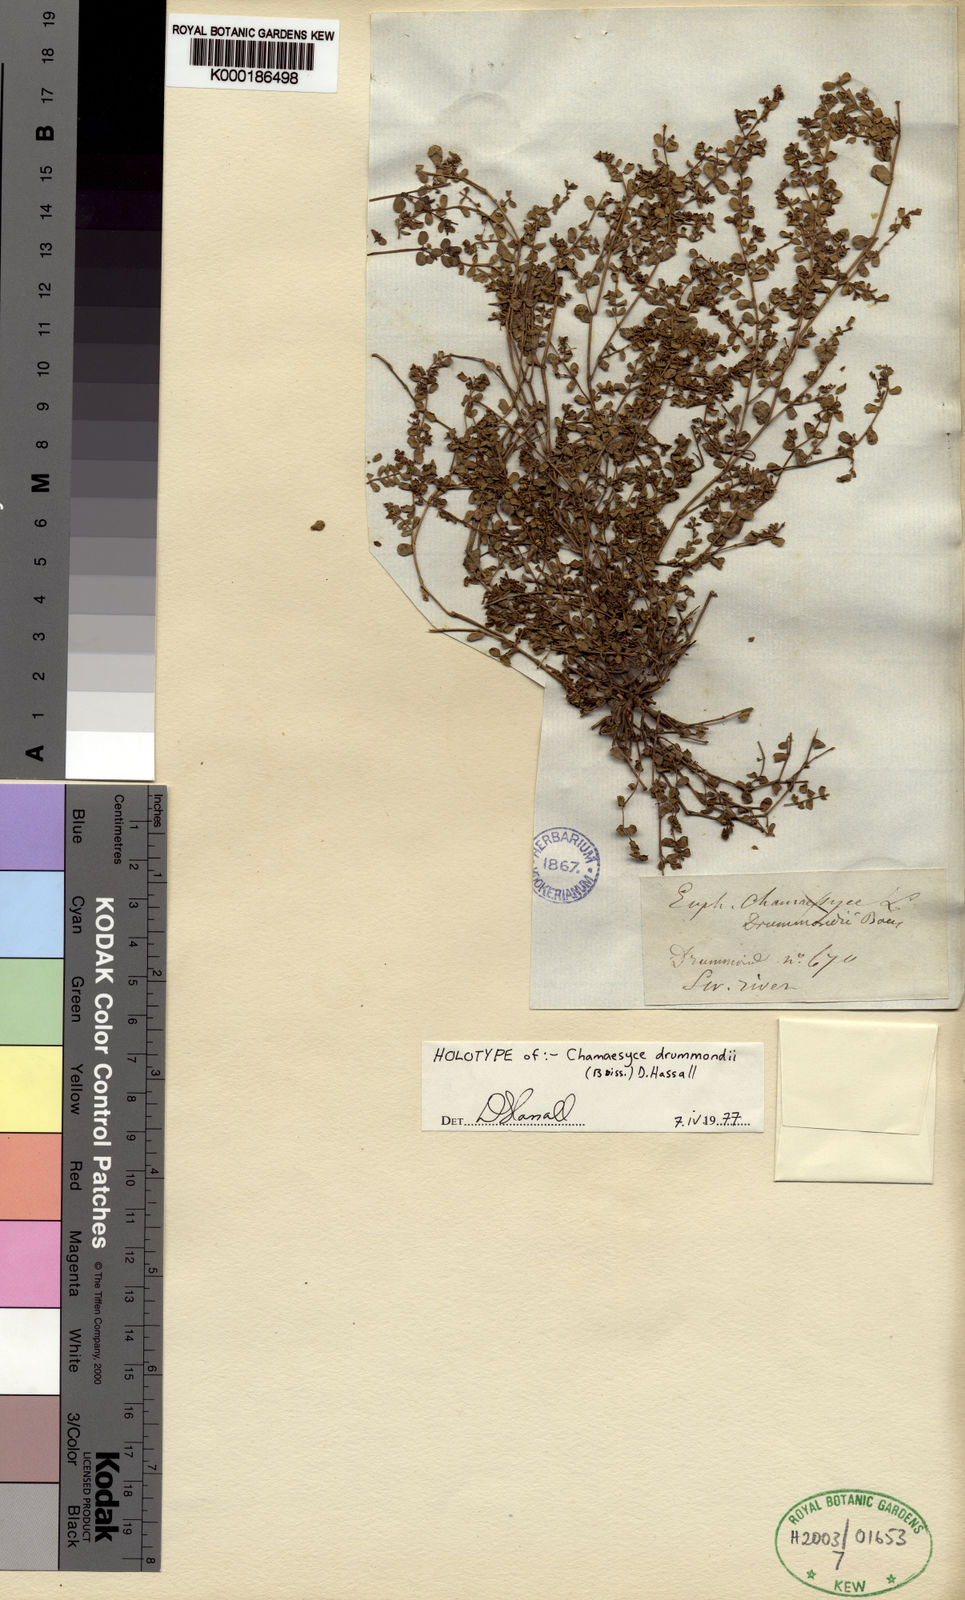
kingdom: Plantae
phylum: Tracheophyta
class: Magnoliopsida
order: Malpighiales
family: Euphorbiaceae
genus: Euphorbia
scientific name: Euphorbia dallachyana
